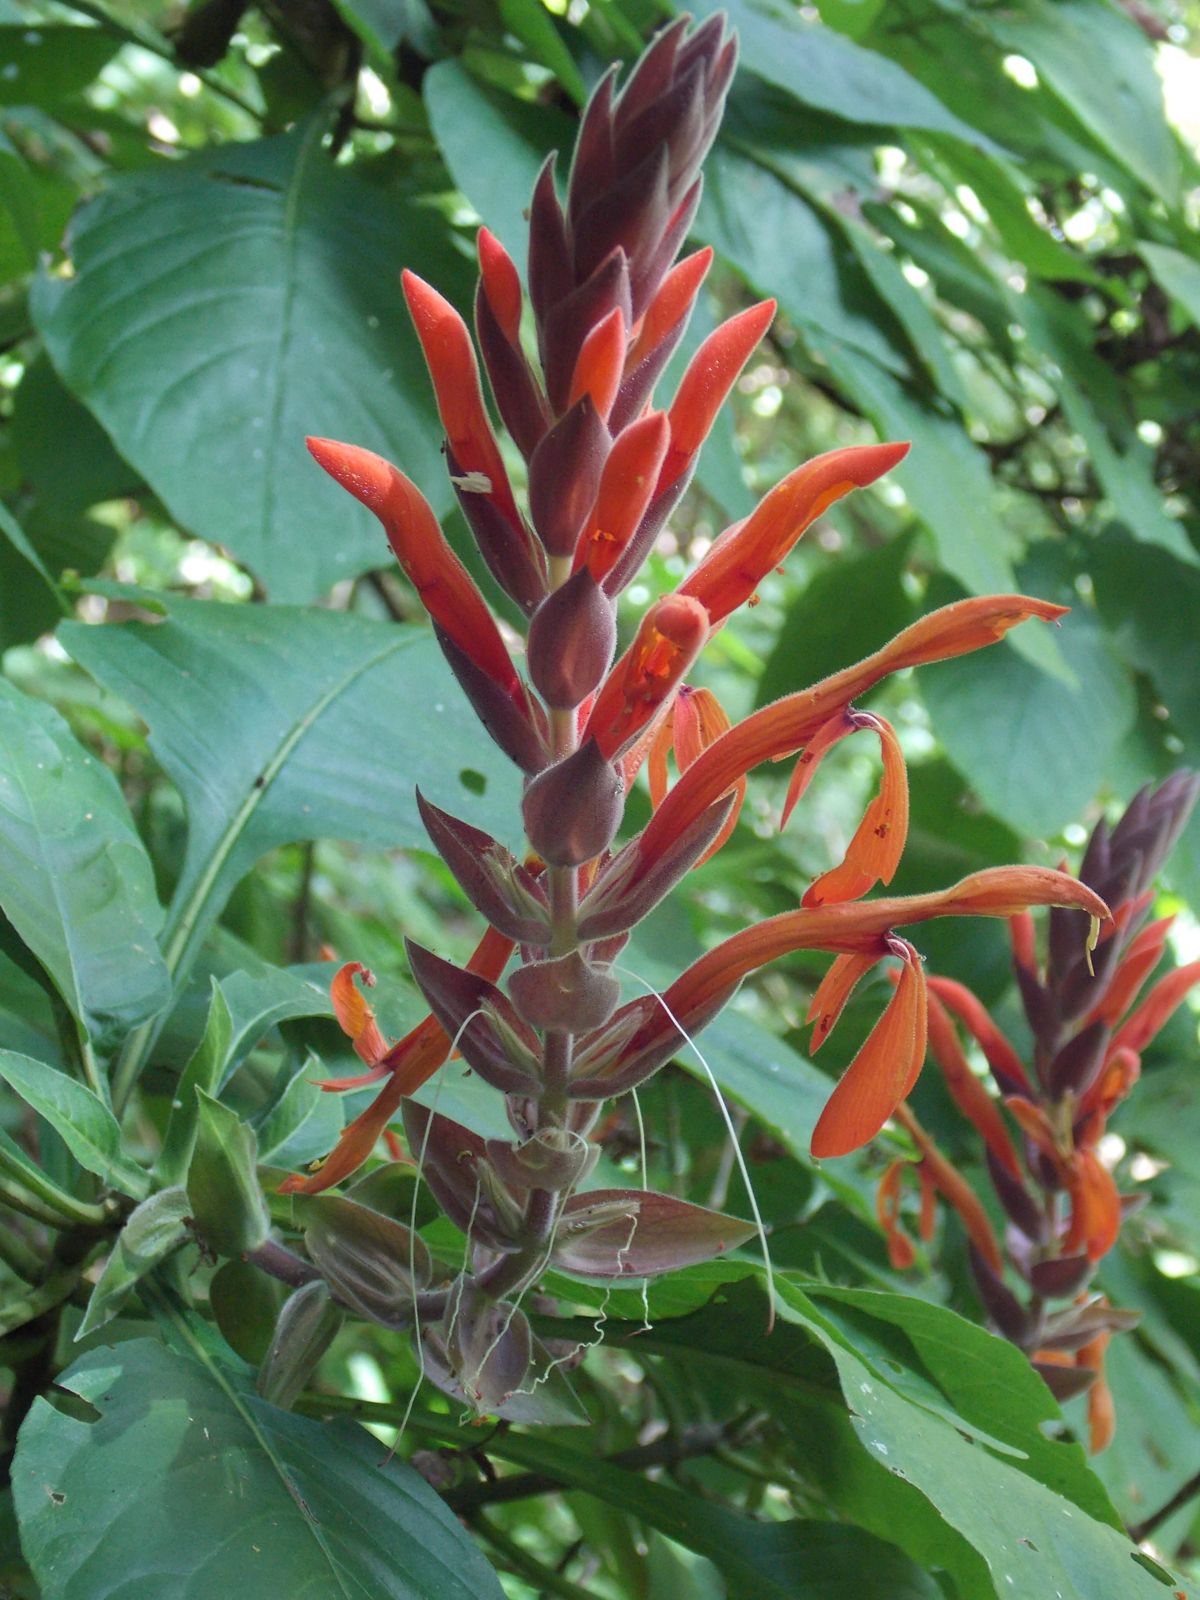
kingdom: Plantae
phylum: Tracheophyta
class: Magnoliopsida
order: Lamiales
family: Acanthaceae
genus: Aphelandra
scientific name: Aphelandra gigantiflora
